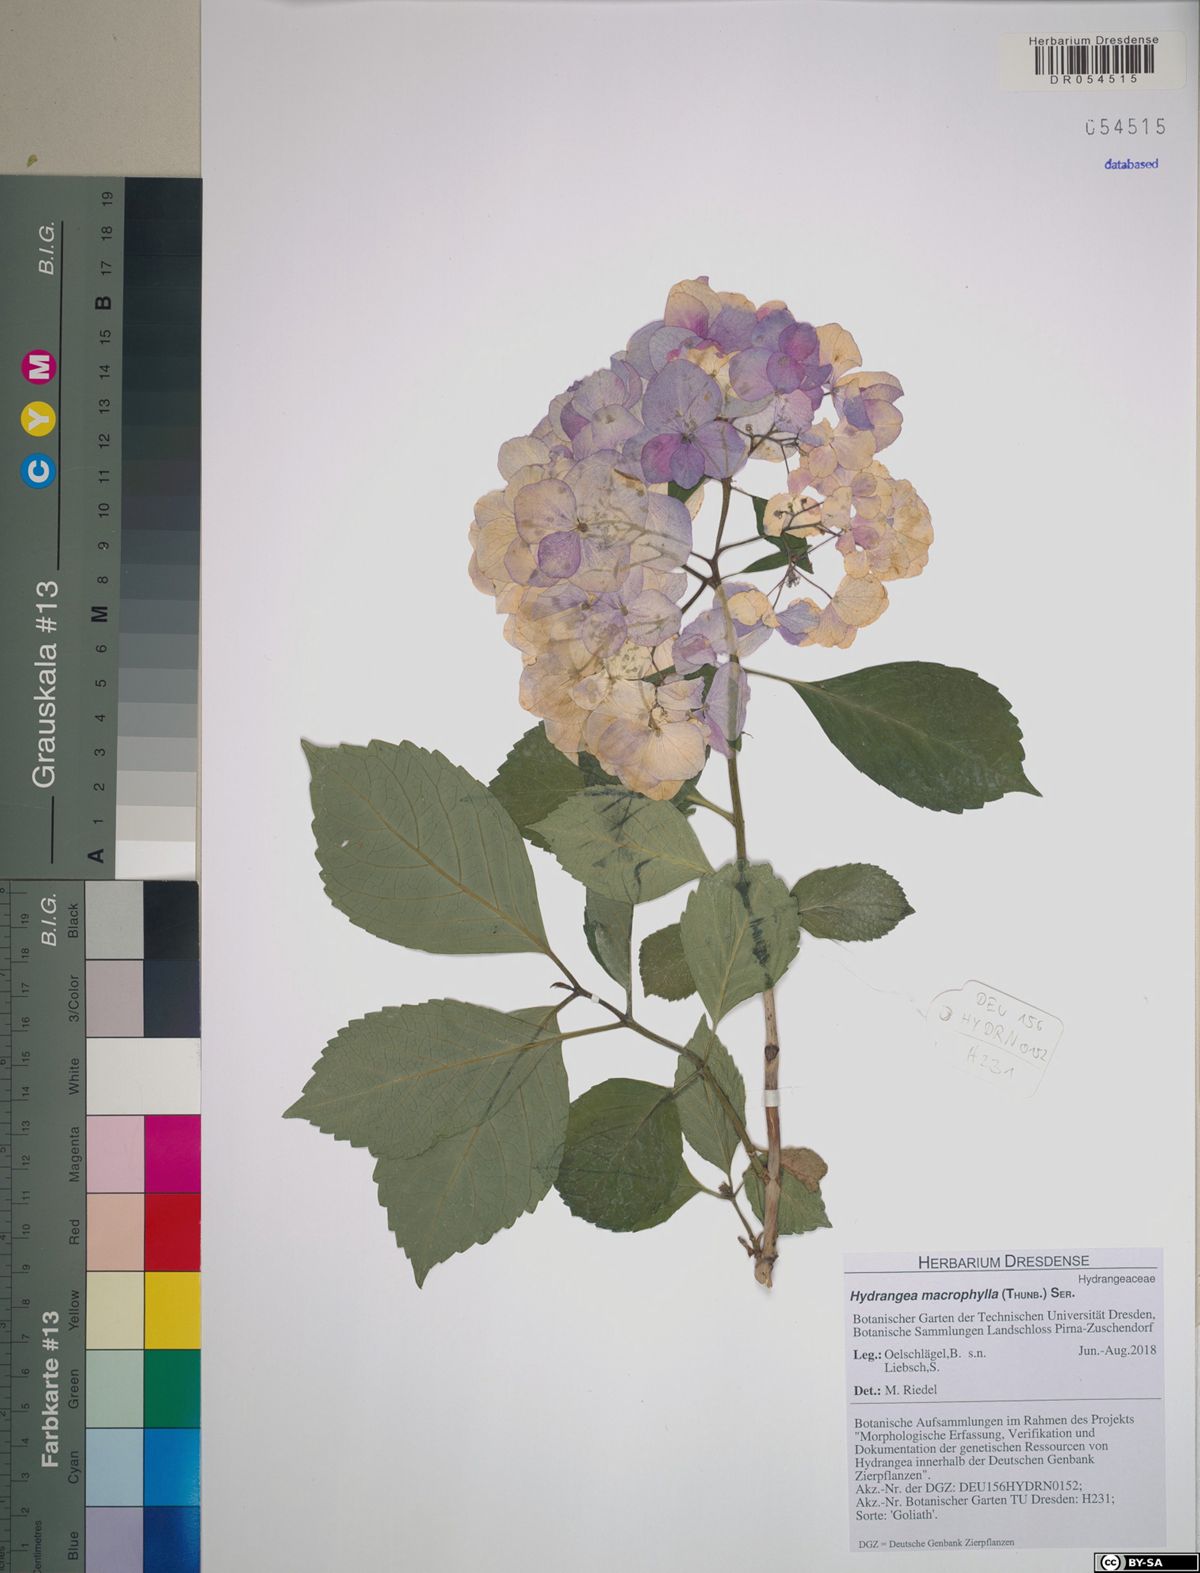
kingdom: Plantae
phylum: Tracheophyta
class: Magnoliopsida
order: Cornales
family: Hydrangeaceae
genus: Hydrangea
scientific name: Hydrangea macrophylla
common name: Hydrangea
